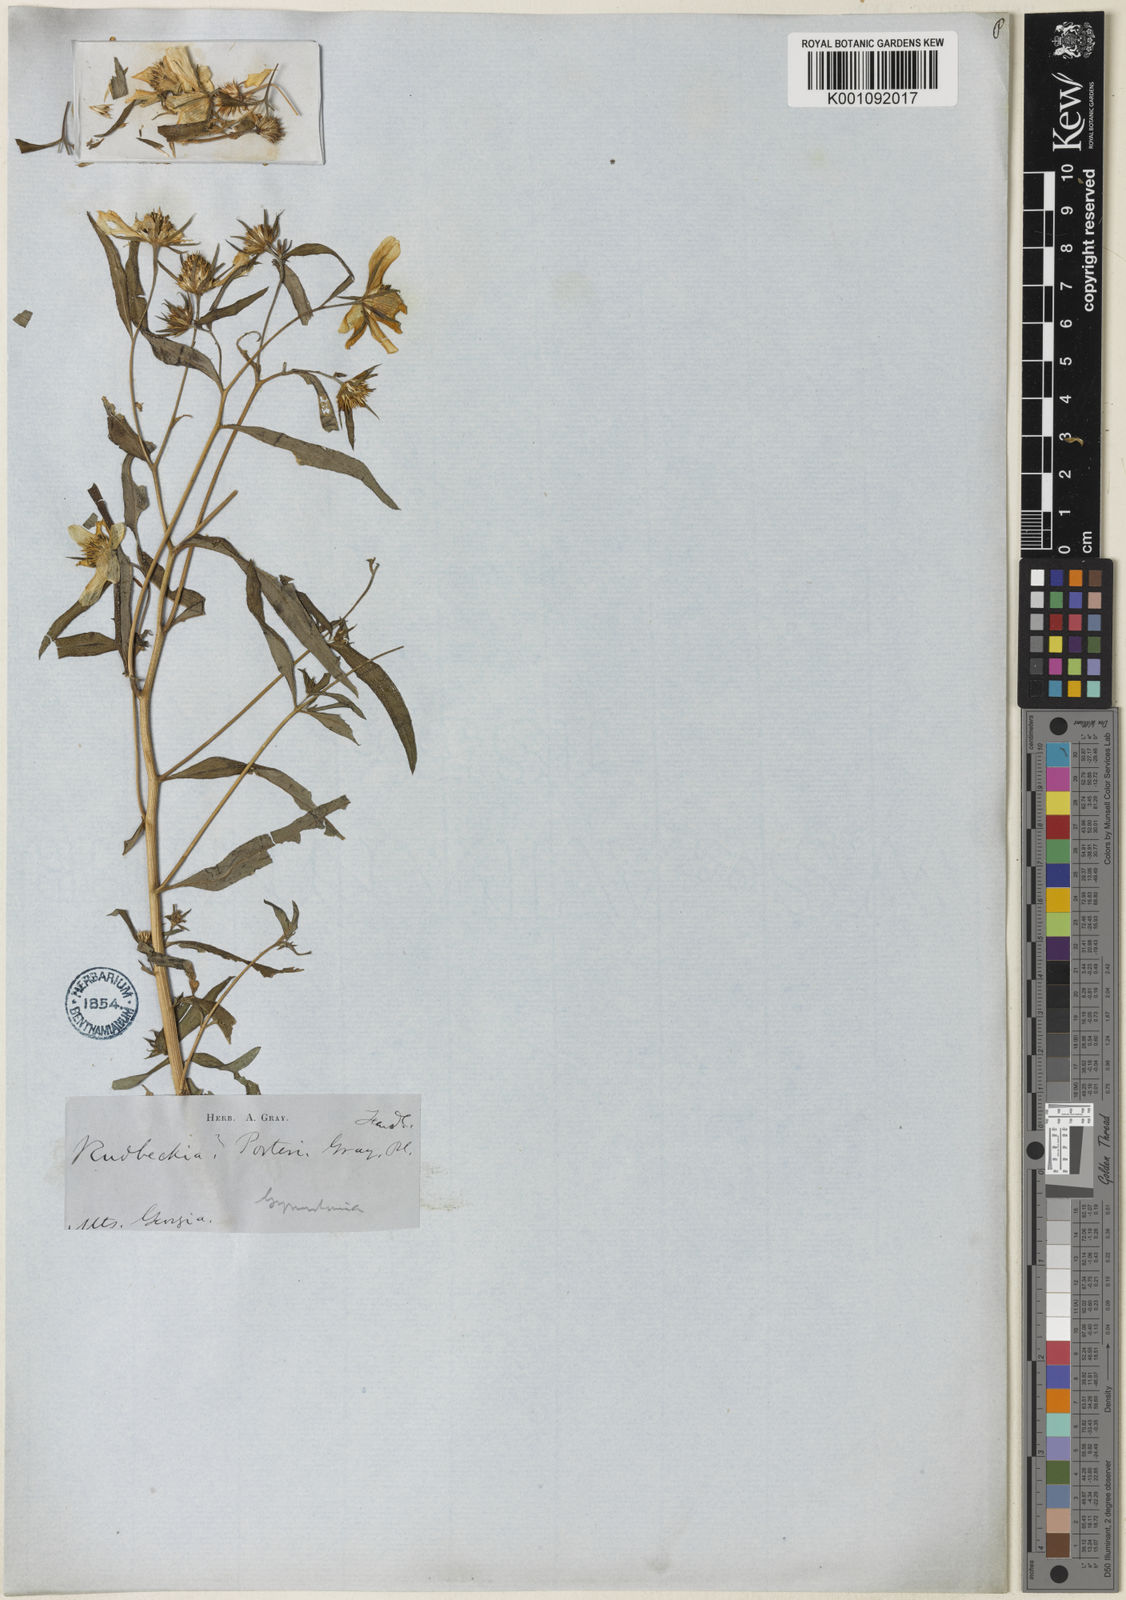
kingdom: Plantae
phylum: Tracheophyta
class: Magnoliopsida
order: Asterales
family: Asteraceae
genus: Helianthus
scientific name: Helianthus porteri
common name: Porter's sunflower
